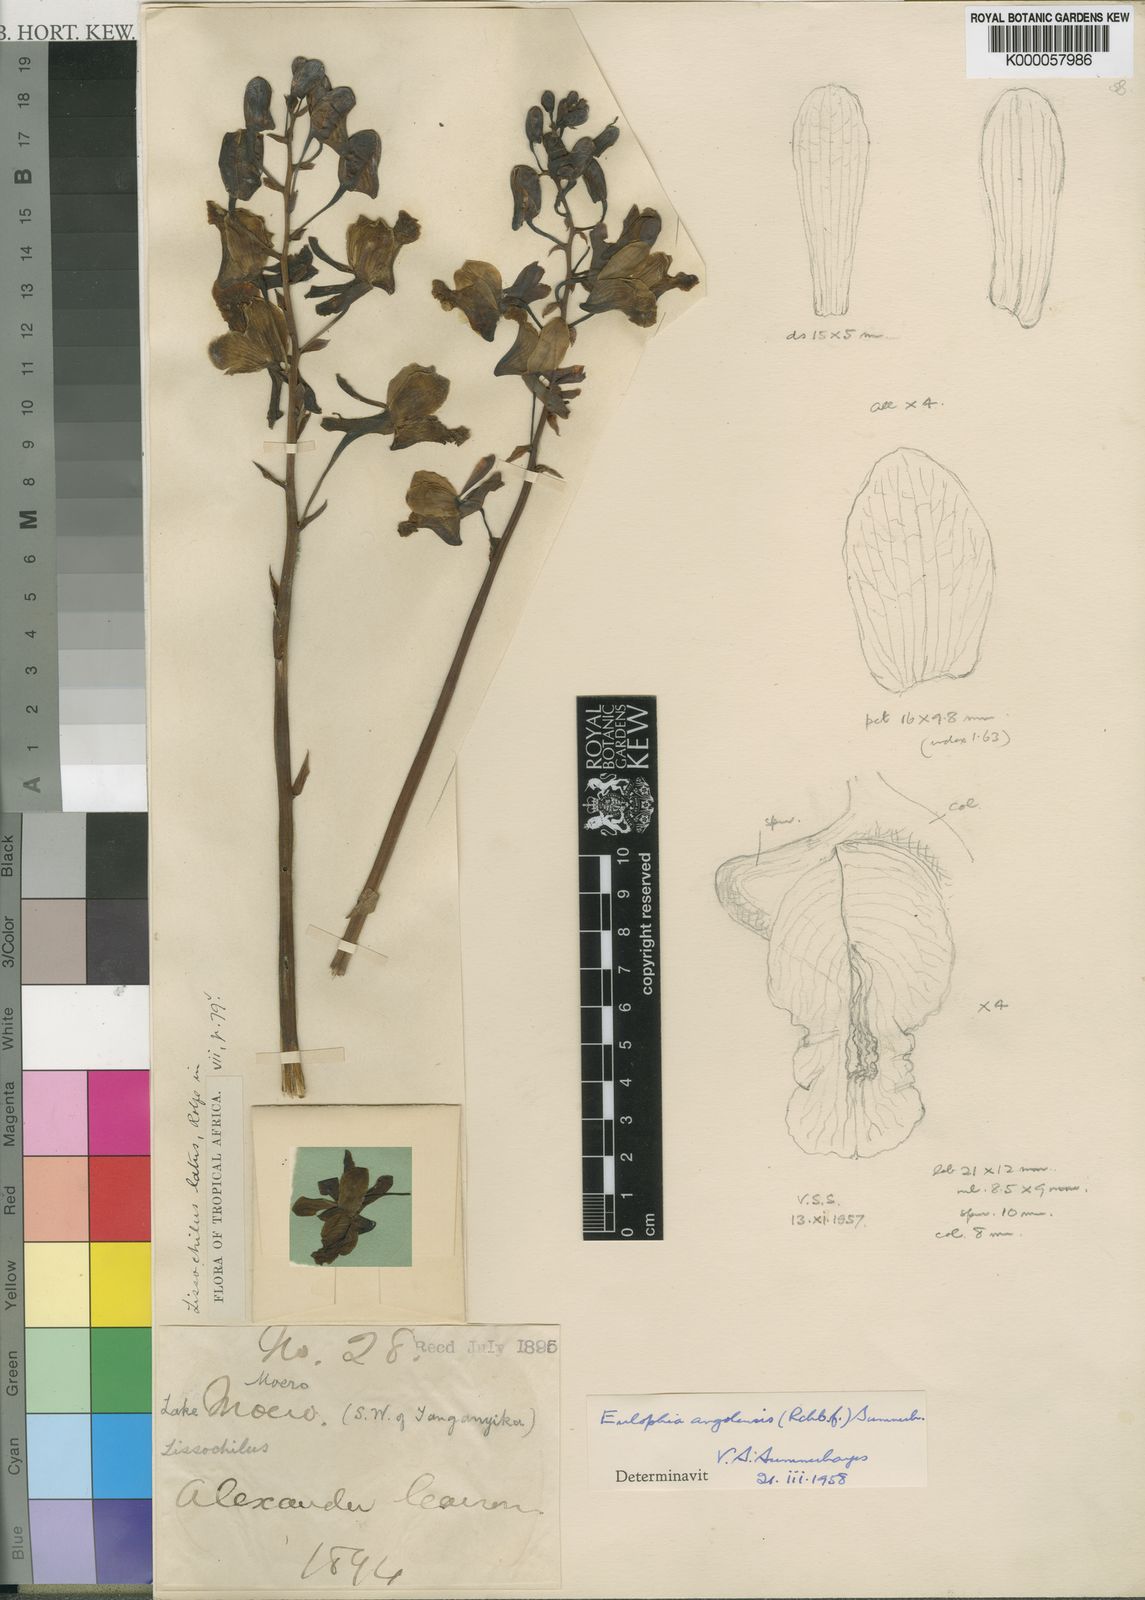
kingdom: Plantae
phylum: Tracheophyta
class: Liliopsida
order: Asparagales
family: Orchidaceae
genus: Eulophia
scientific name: Eulophia angolensis
